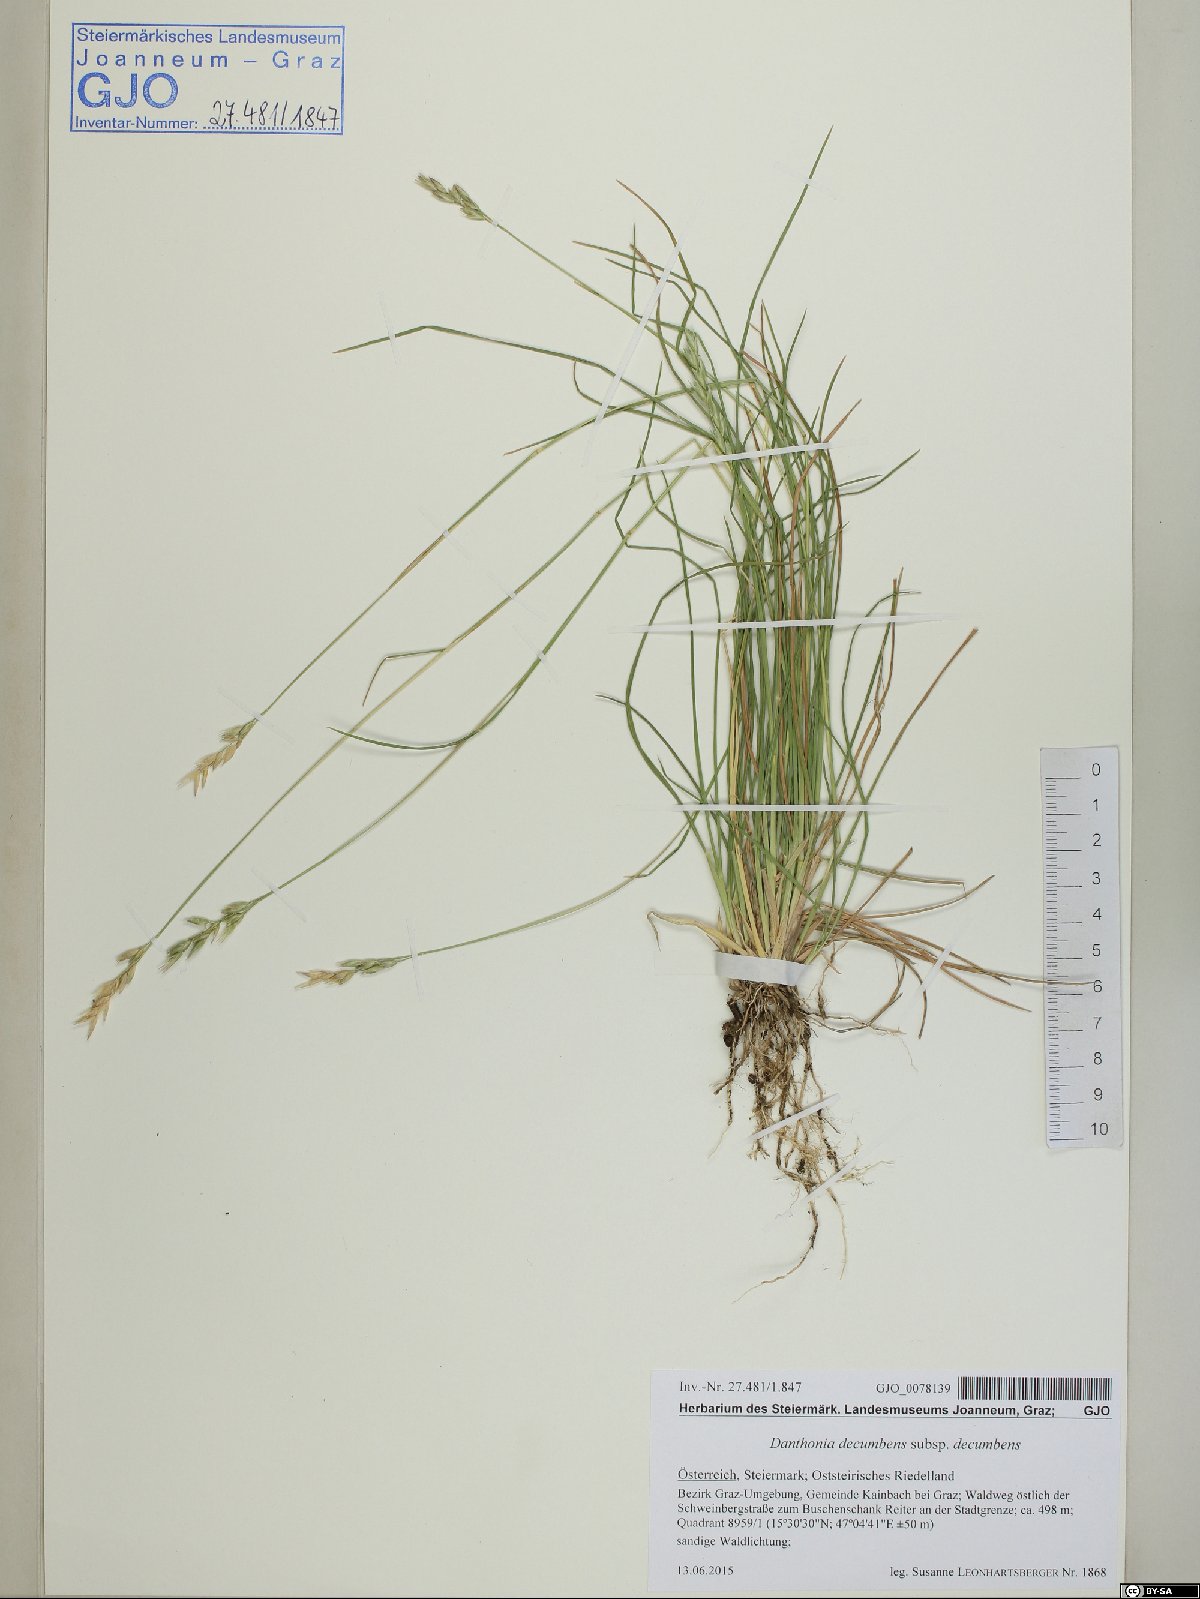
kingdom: Plantae
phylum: Tracheophyta
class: Liliopsida
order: Poales
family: Poaceae
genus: Danthonia
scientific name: Danthonia decumbens
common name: Common heathgrass
